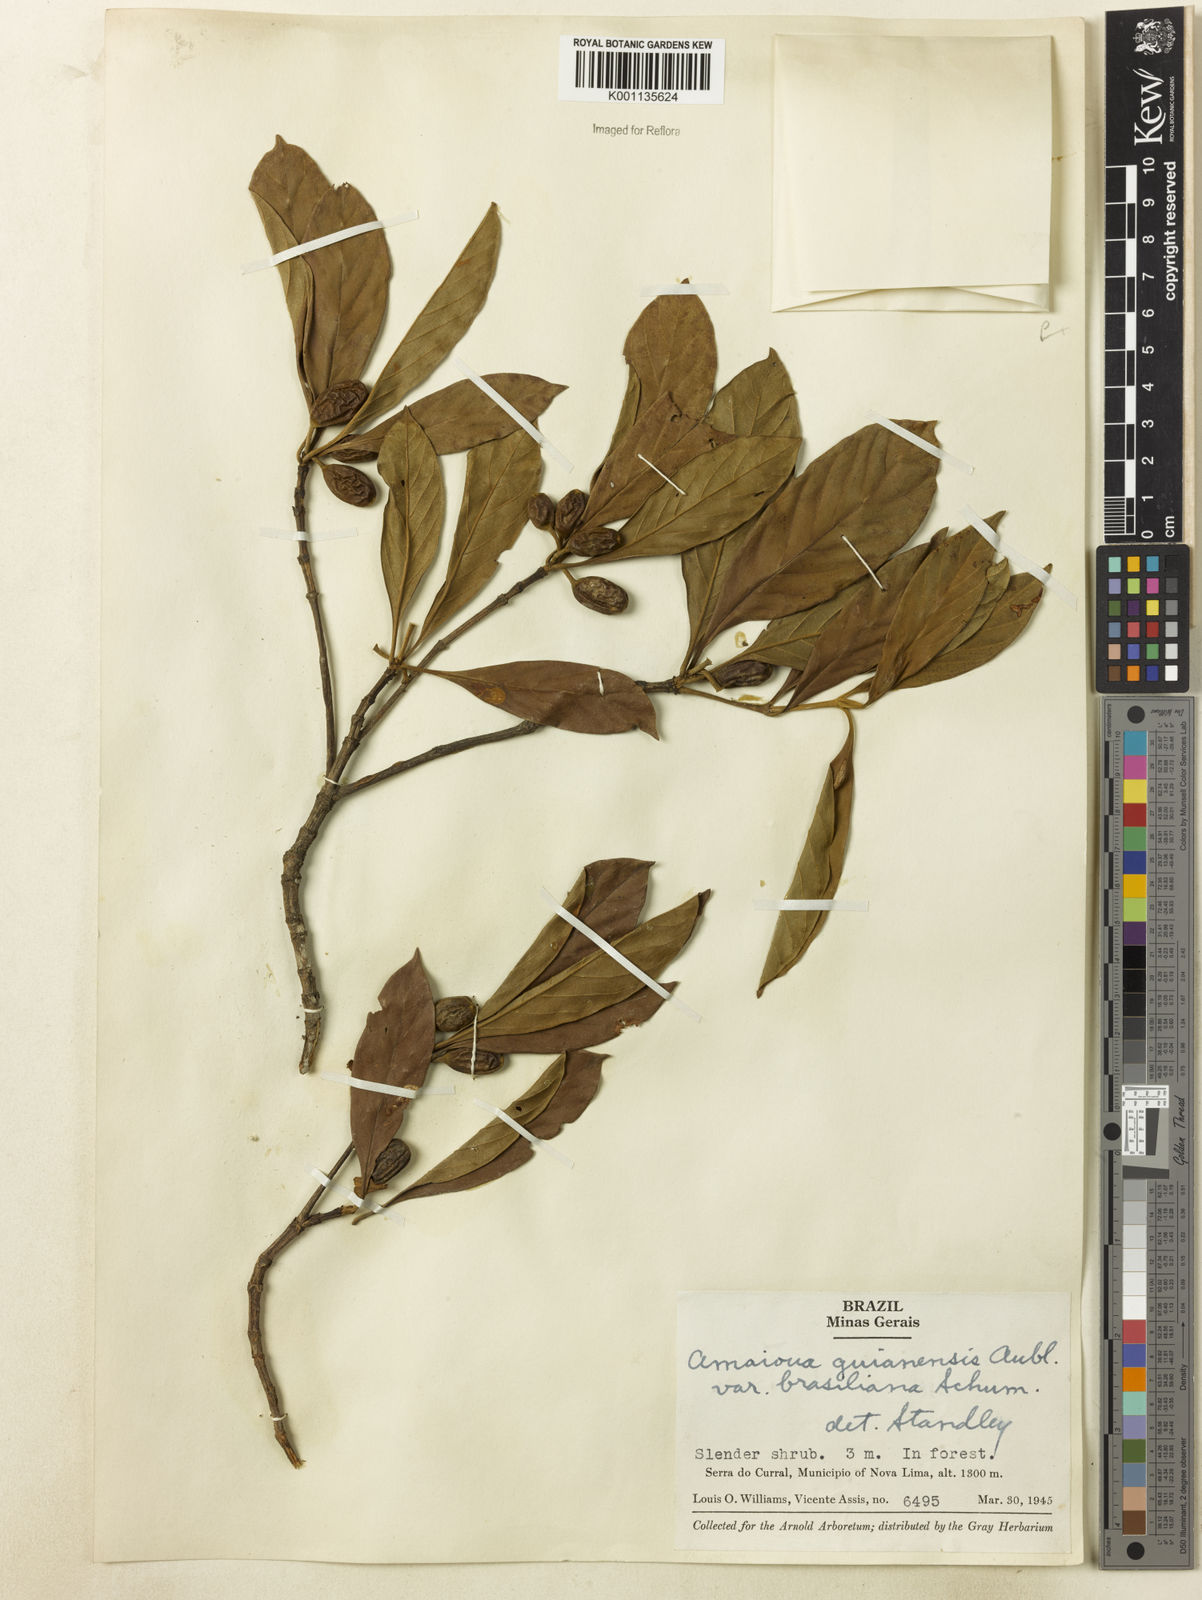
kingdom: Plantae
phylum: Tracheophyta
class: Magnoliopsida
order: Gentianales
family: Rubiaceae
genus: Amaioua
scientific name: Amaioua intermedia
